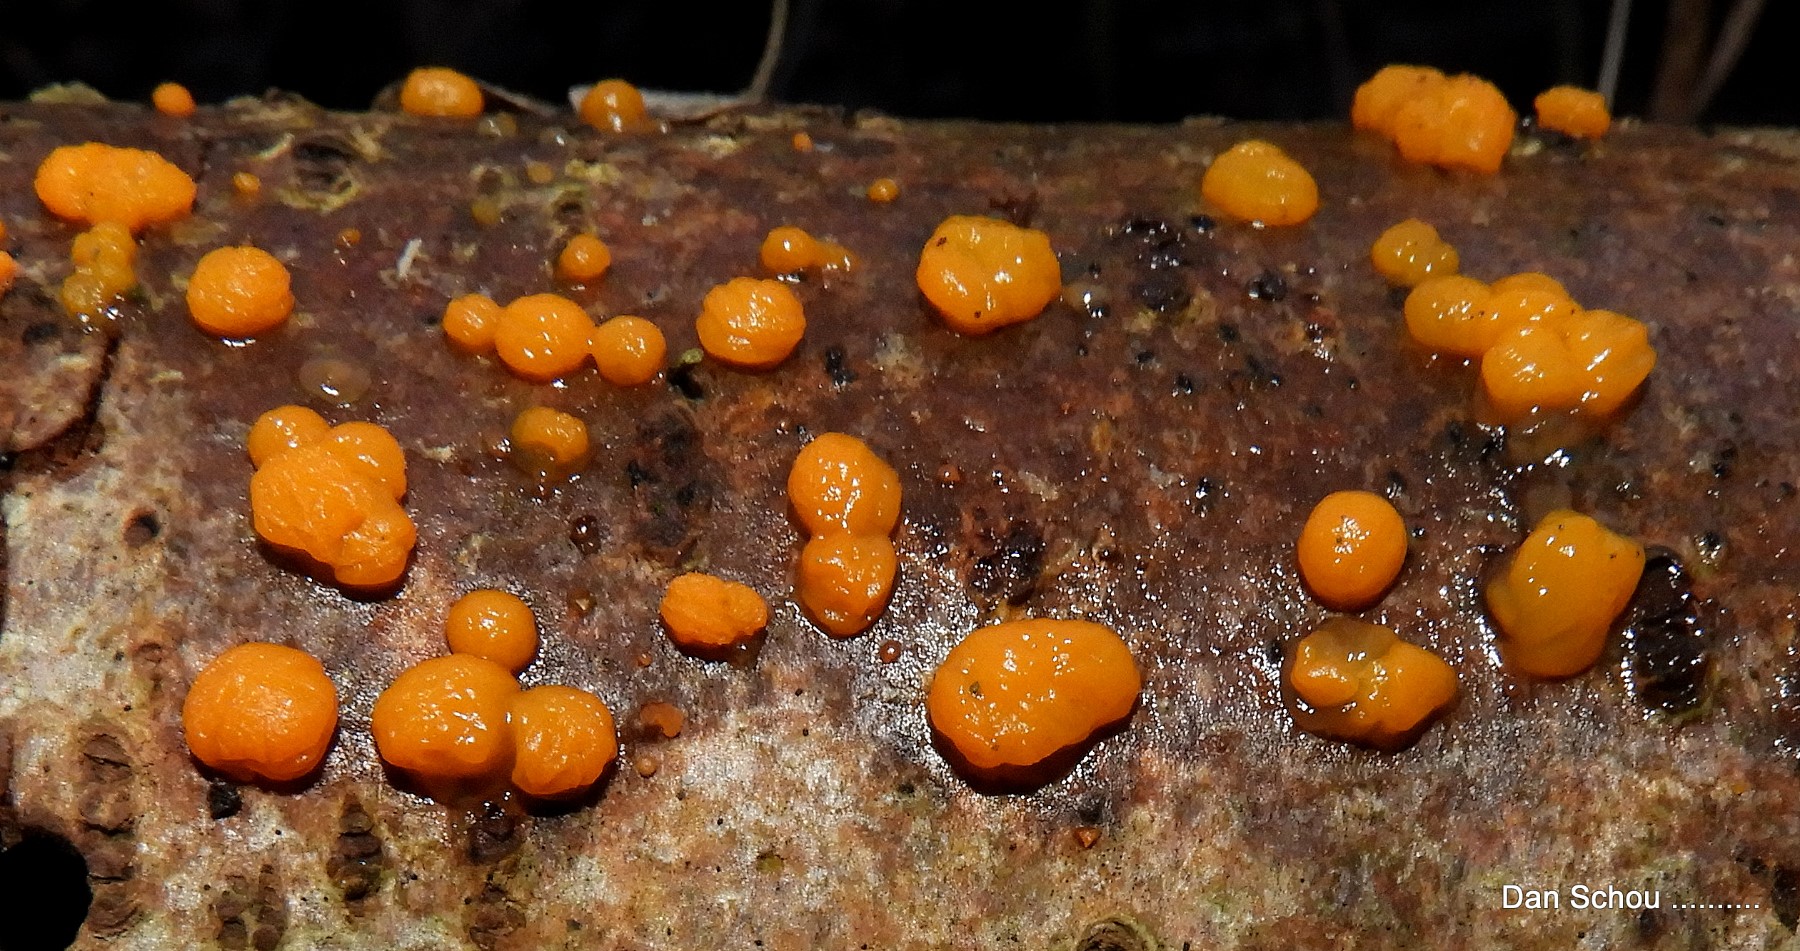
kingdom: Fungi
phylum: Basidiomycota
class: Dacrymycetes
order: Dacrymycetales
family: Dacrymycetaceae
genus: Dacrymyces
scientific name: Dacrymyces stillatus
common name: almindelig tåresvamp
